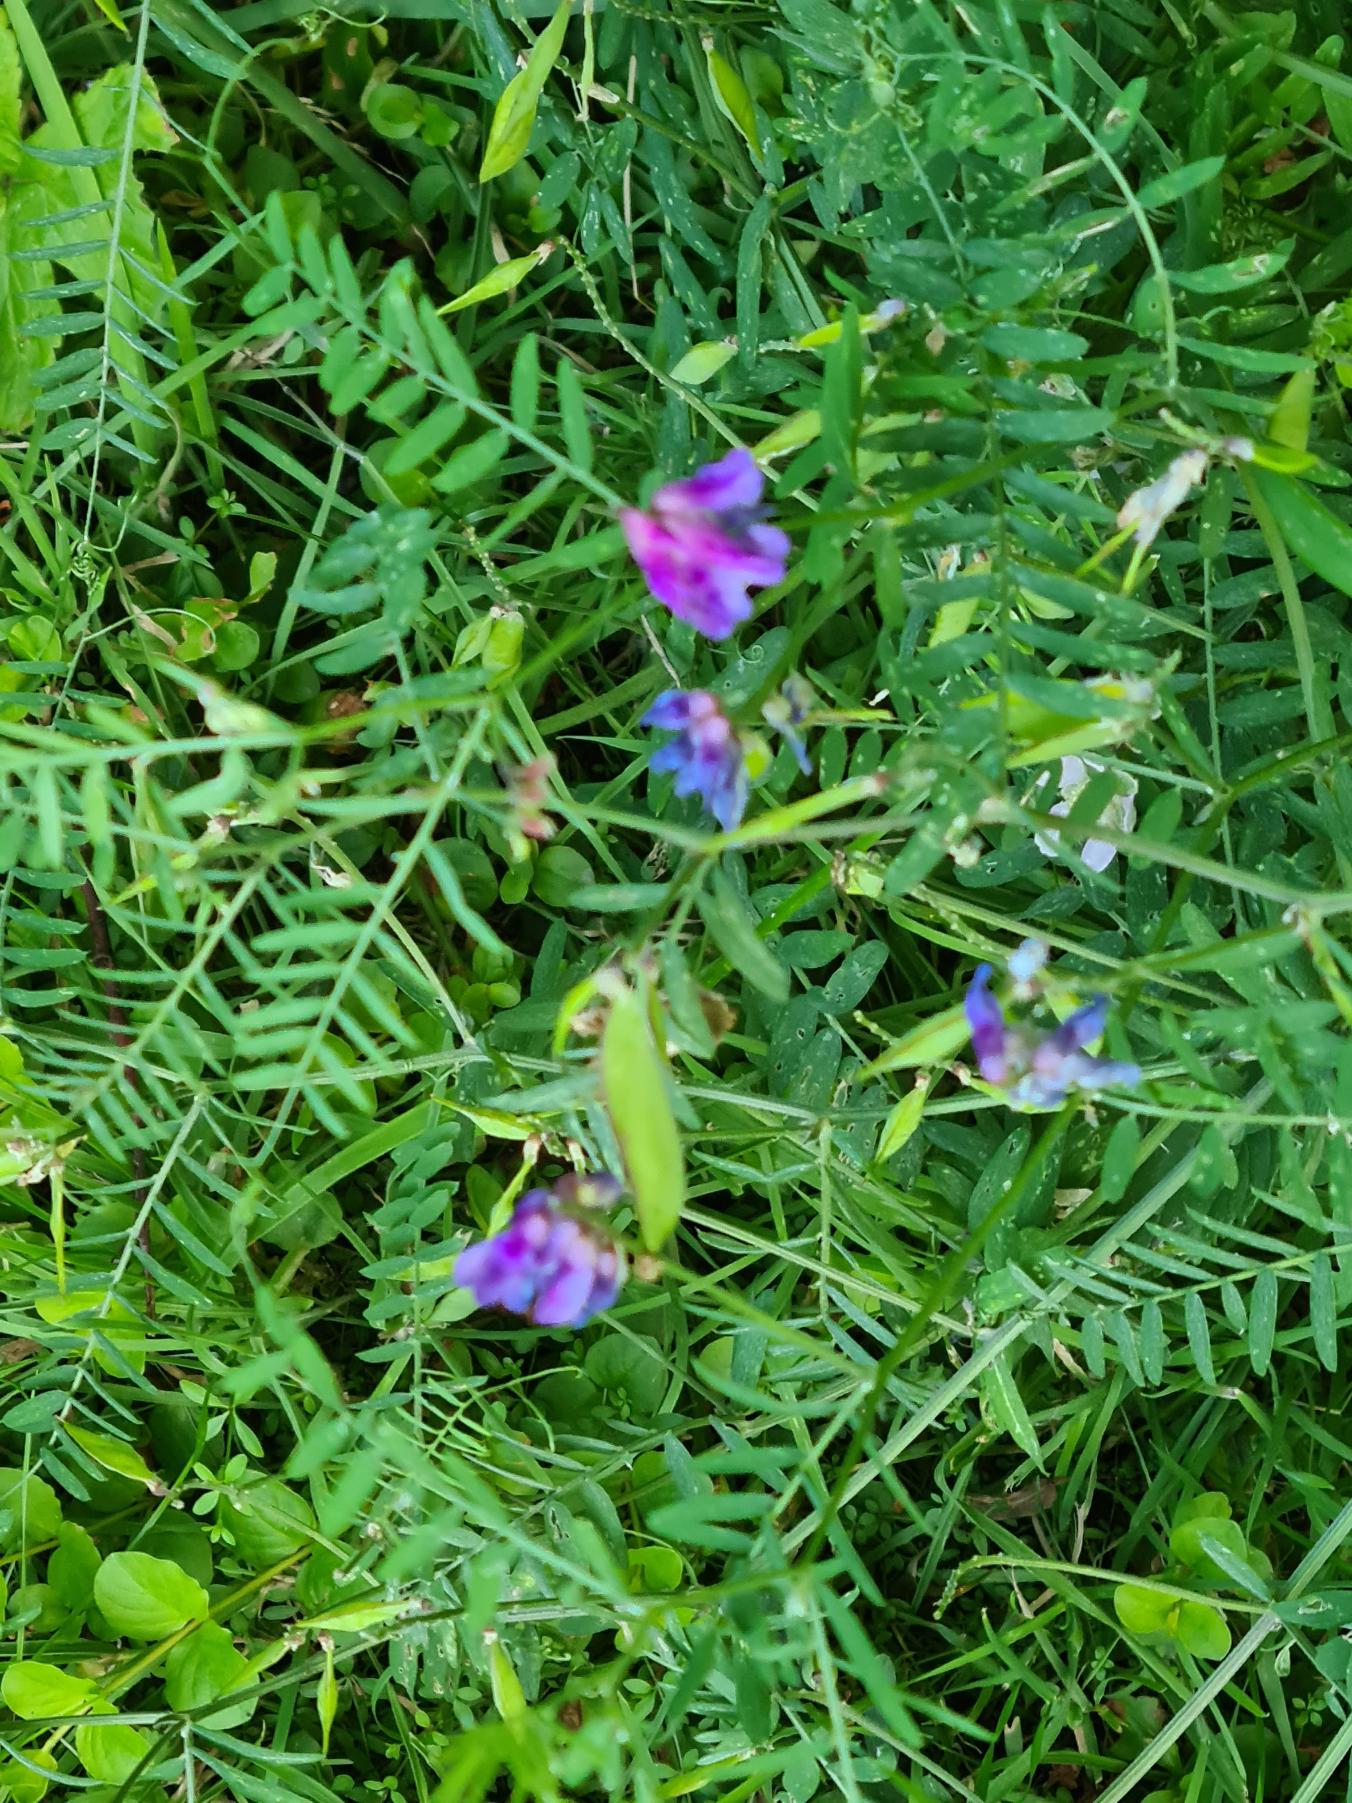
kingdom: Plantae
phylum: Tracheophyta
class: Magnoliopsida
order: Fabales
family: Fabaceae
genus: Vicia
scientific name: Vicia cracca
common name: Muse-vikke
